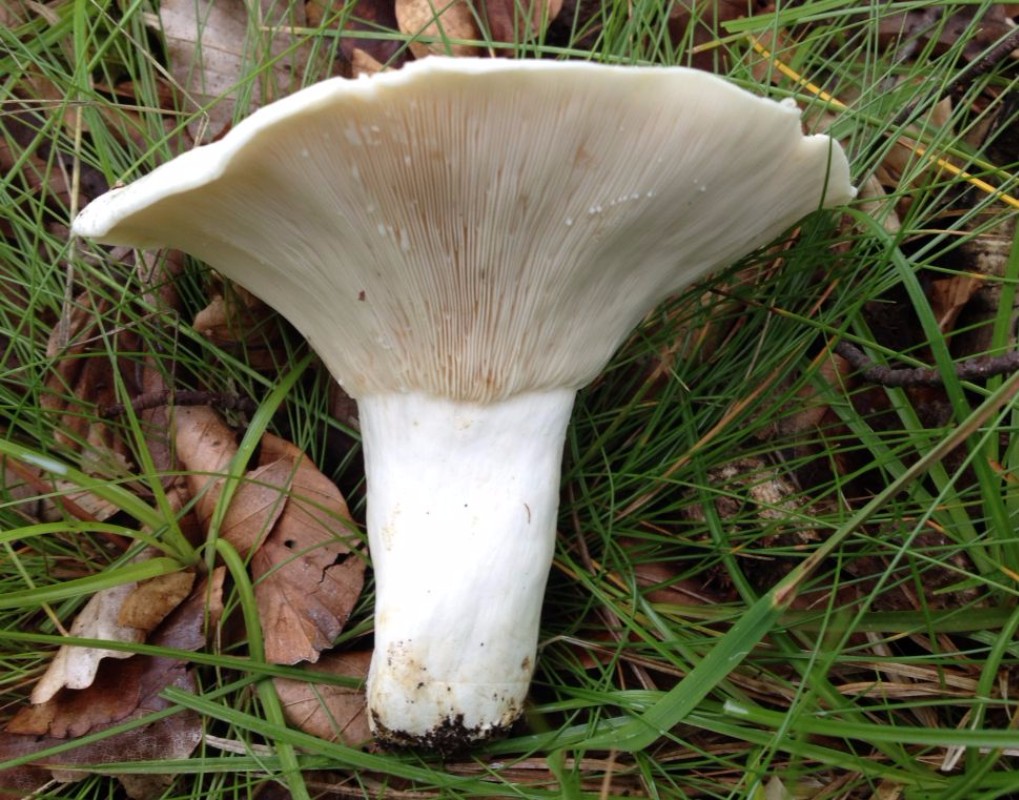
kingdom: Fungi
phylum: Basidiomycota
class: Agaricomycetes
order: Russulales
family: Russulaceae
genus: Lactifluus
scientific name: Lactifluus vellereus
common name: hvidfiltet mælkehat
